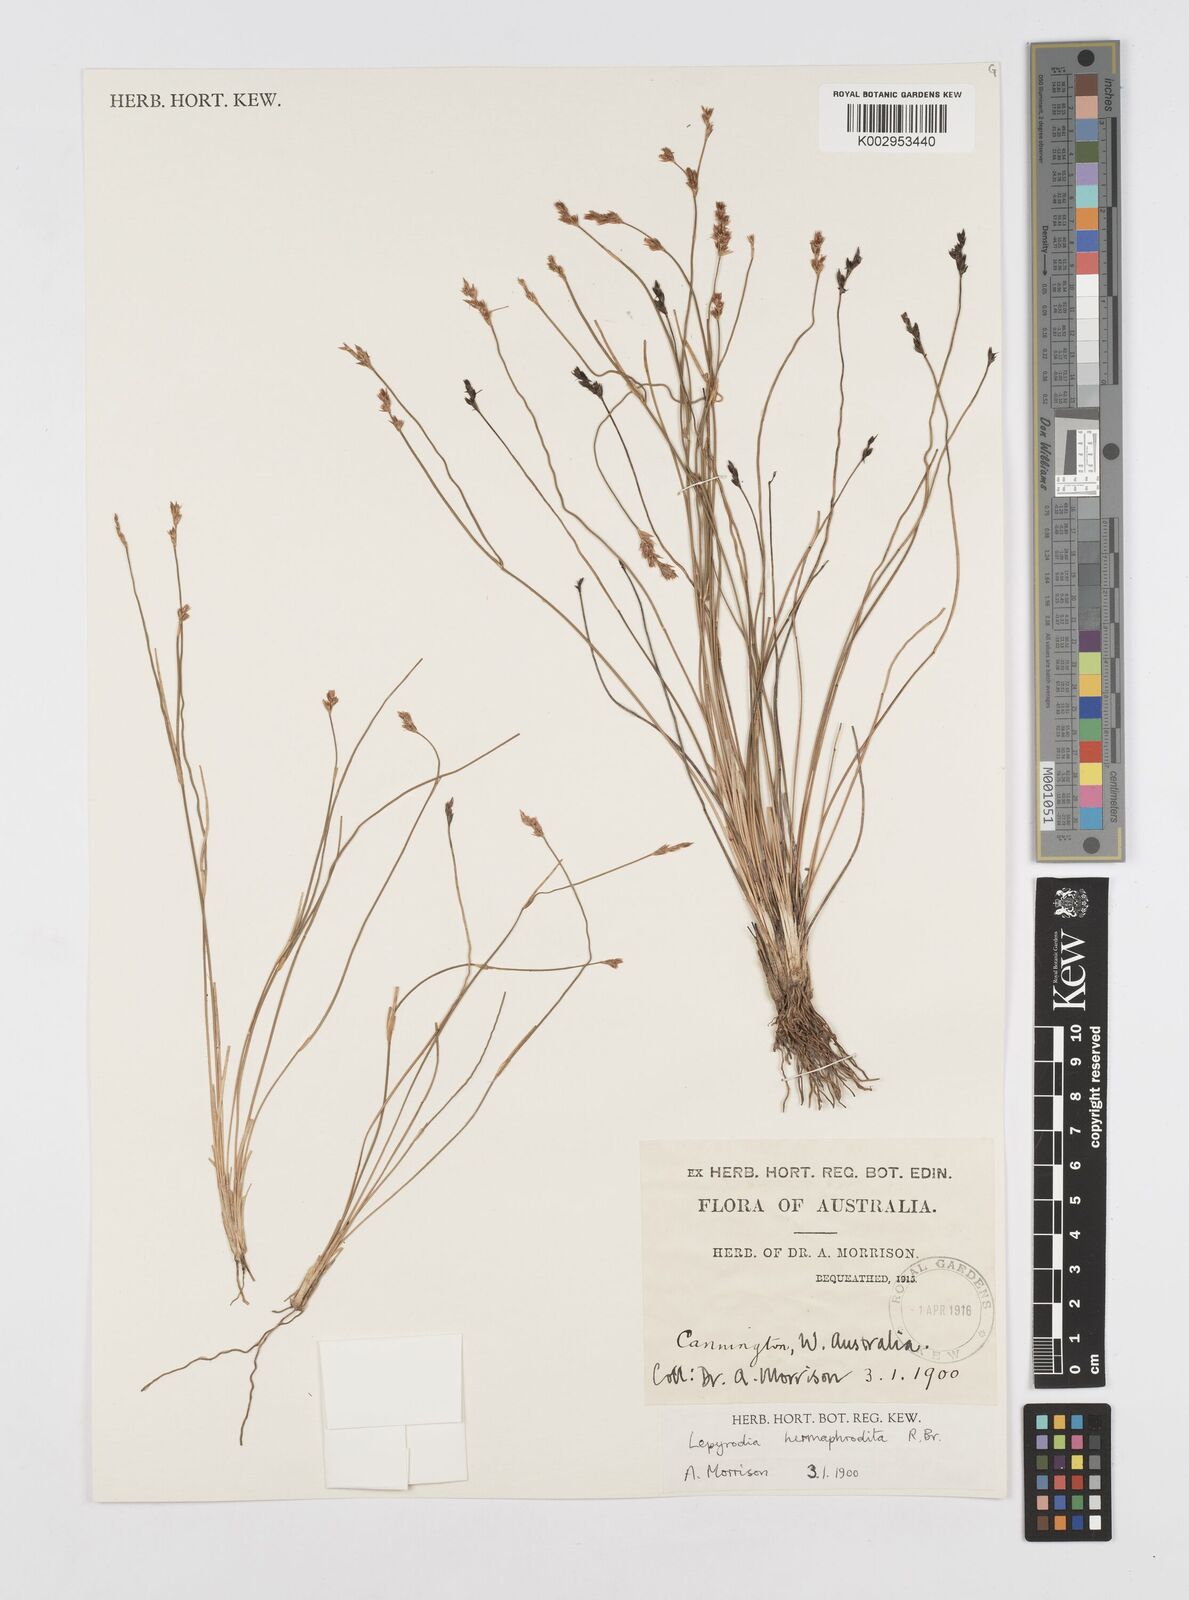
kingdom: Plantae
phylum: Tracheophyta
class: Liliopsida
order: Poales
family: Restionaceae
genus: Lepyrodia
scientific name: Lepyrodia hermaphrodita
